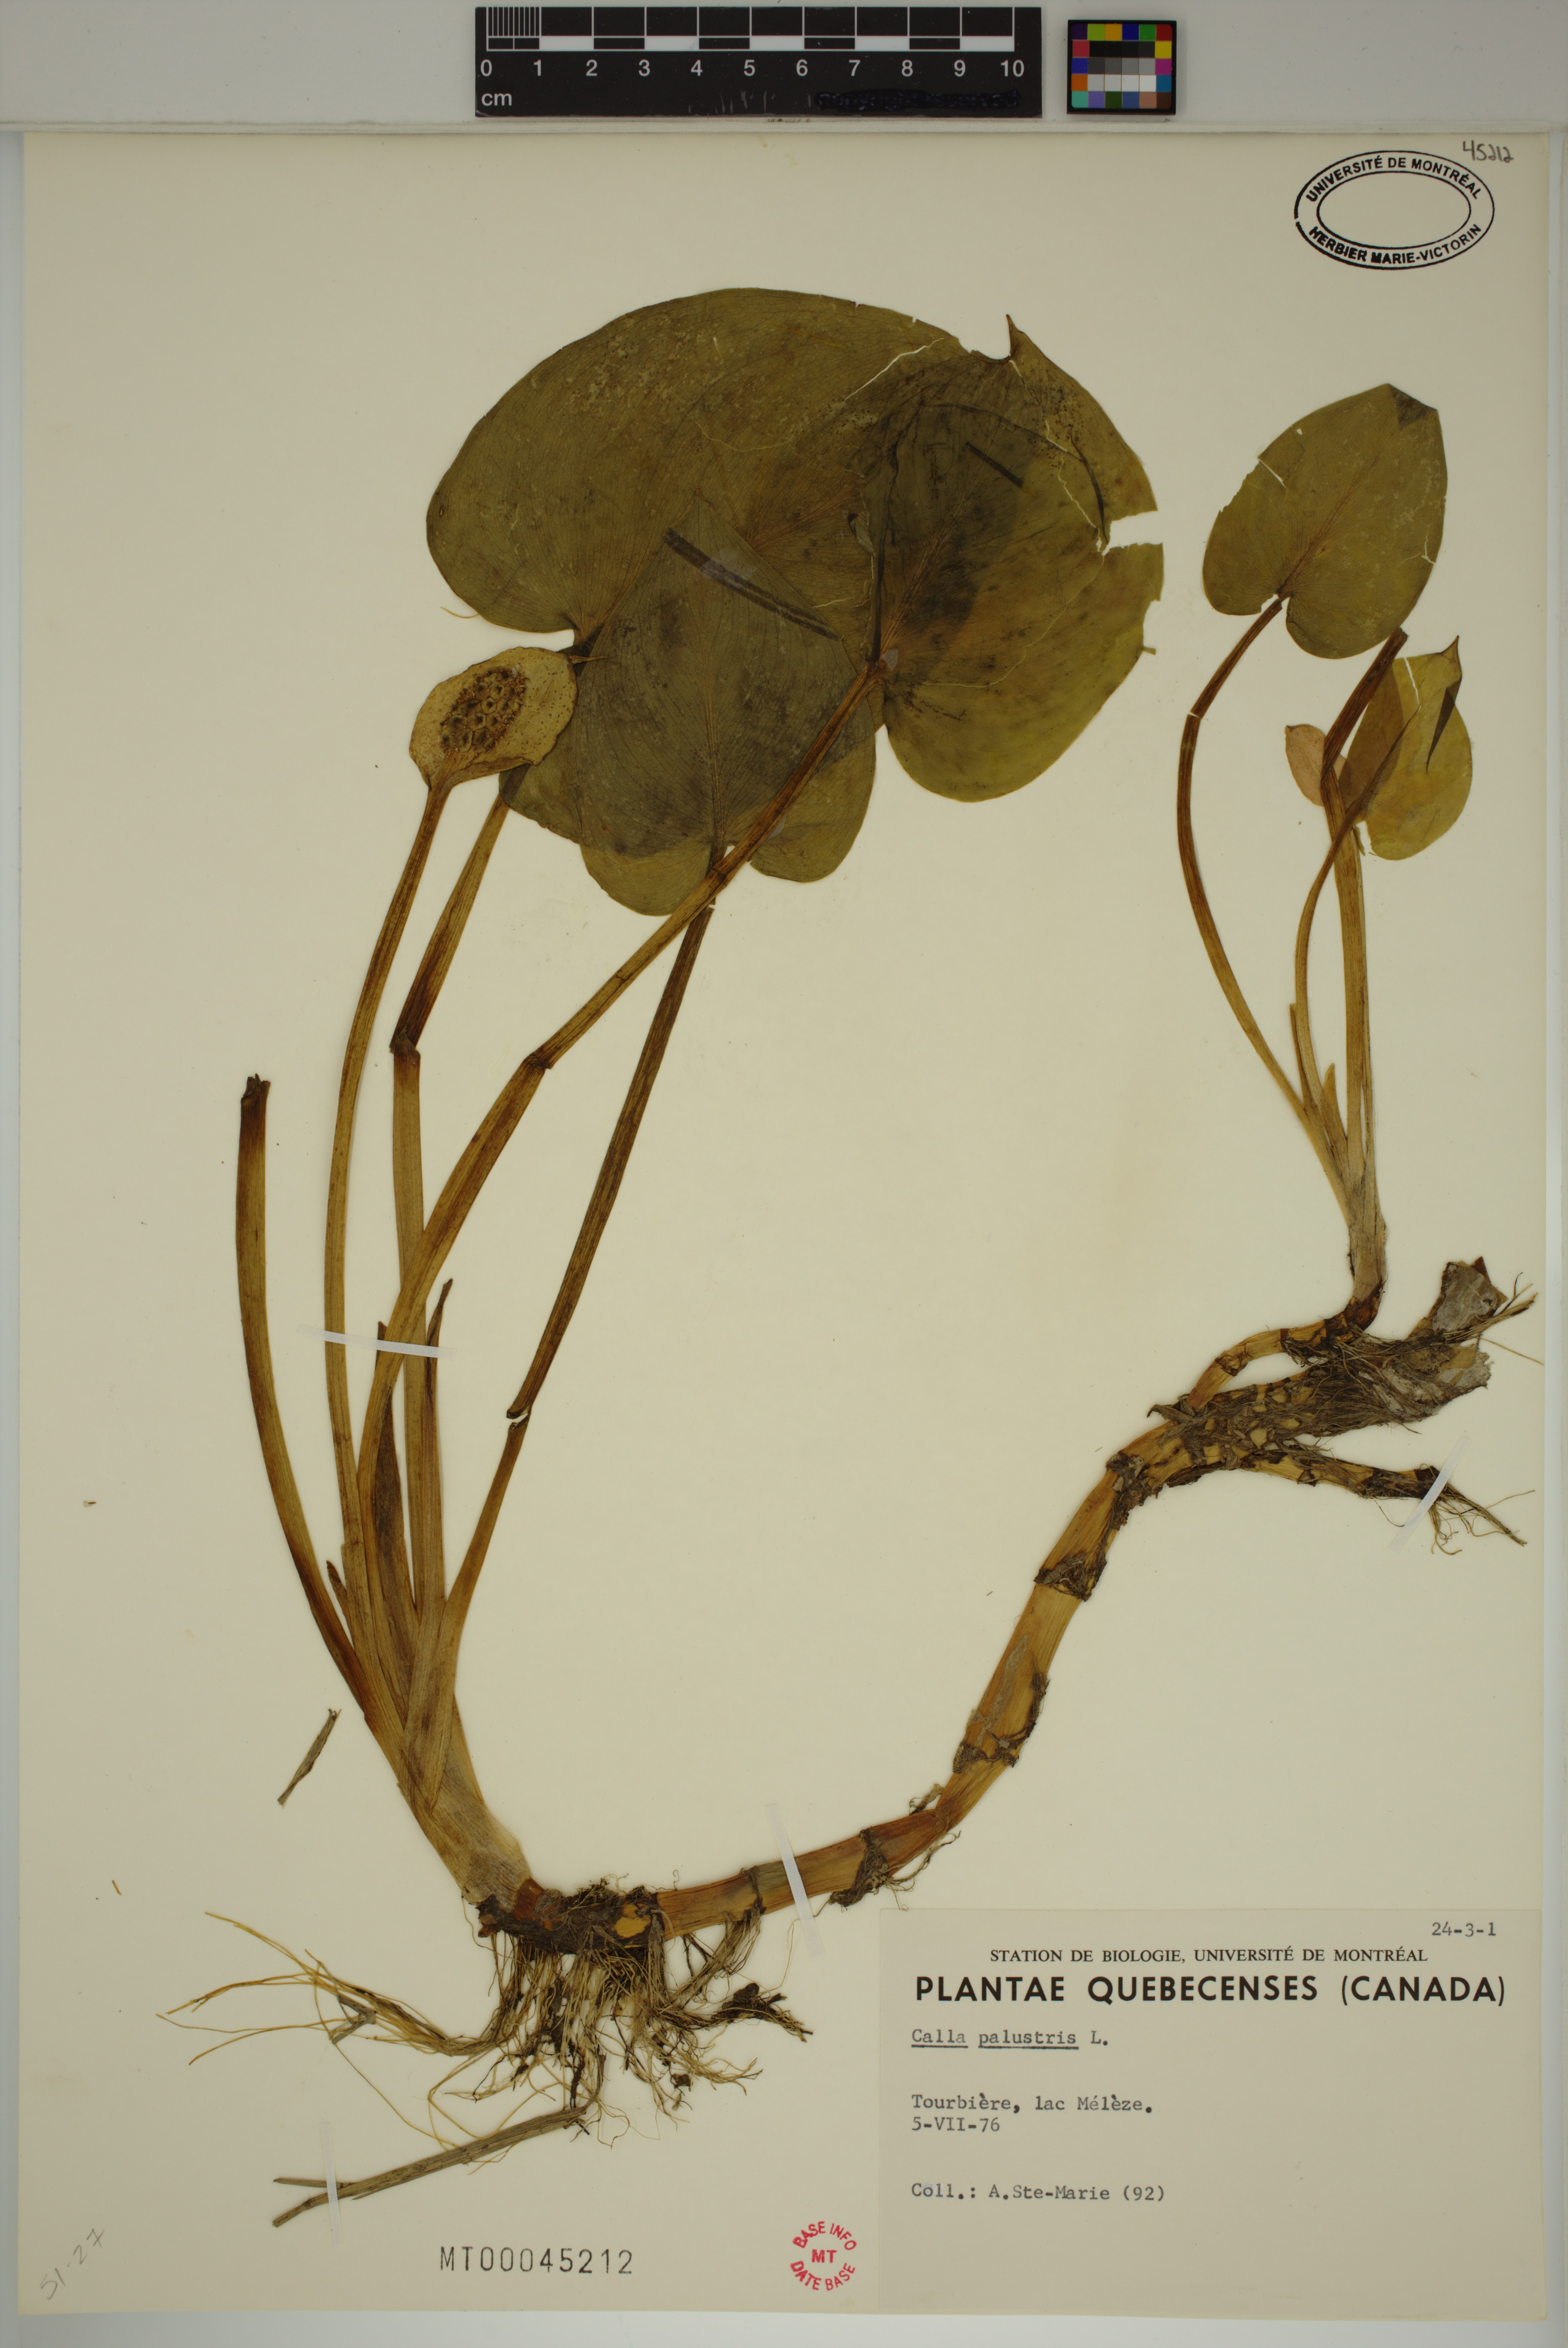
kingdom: Plantae
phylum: Tracheophyta
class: Liliopsida
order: Alismatales
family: Araceae
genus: Calla
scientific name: Calla palustris
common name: Bog arum
